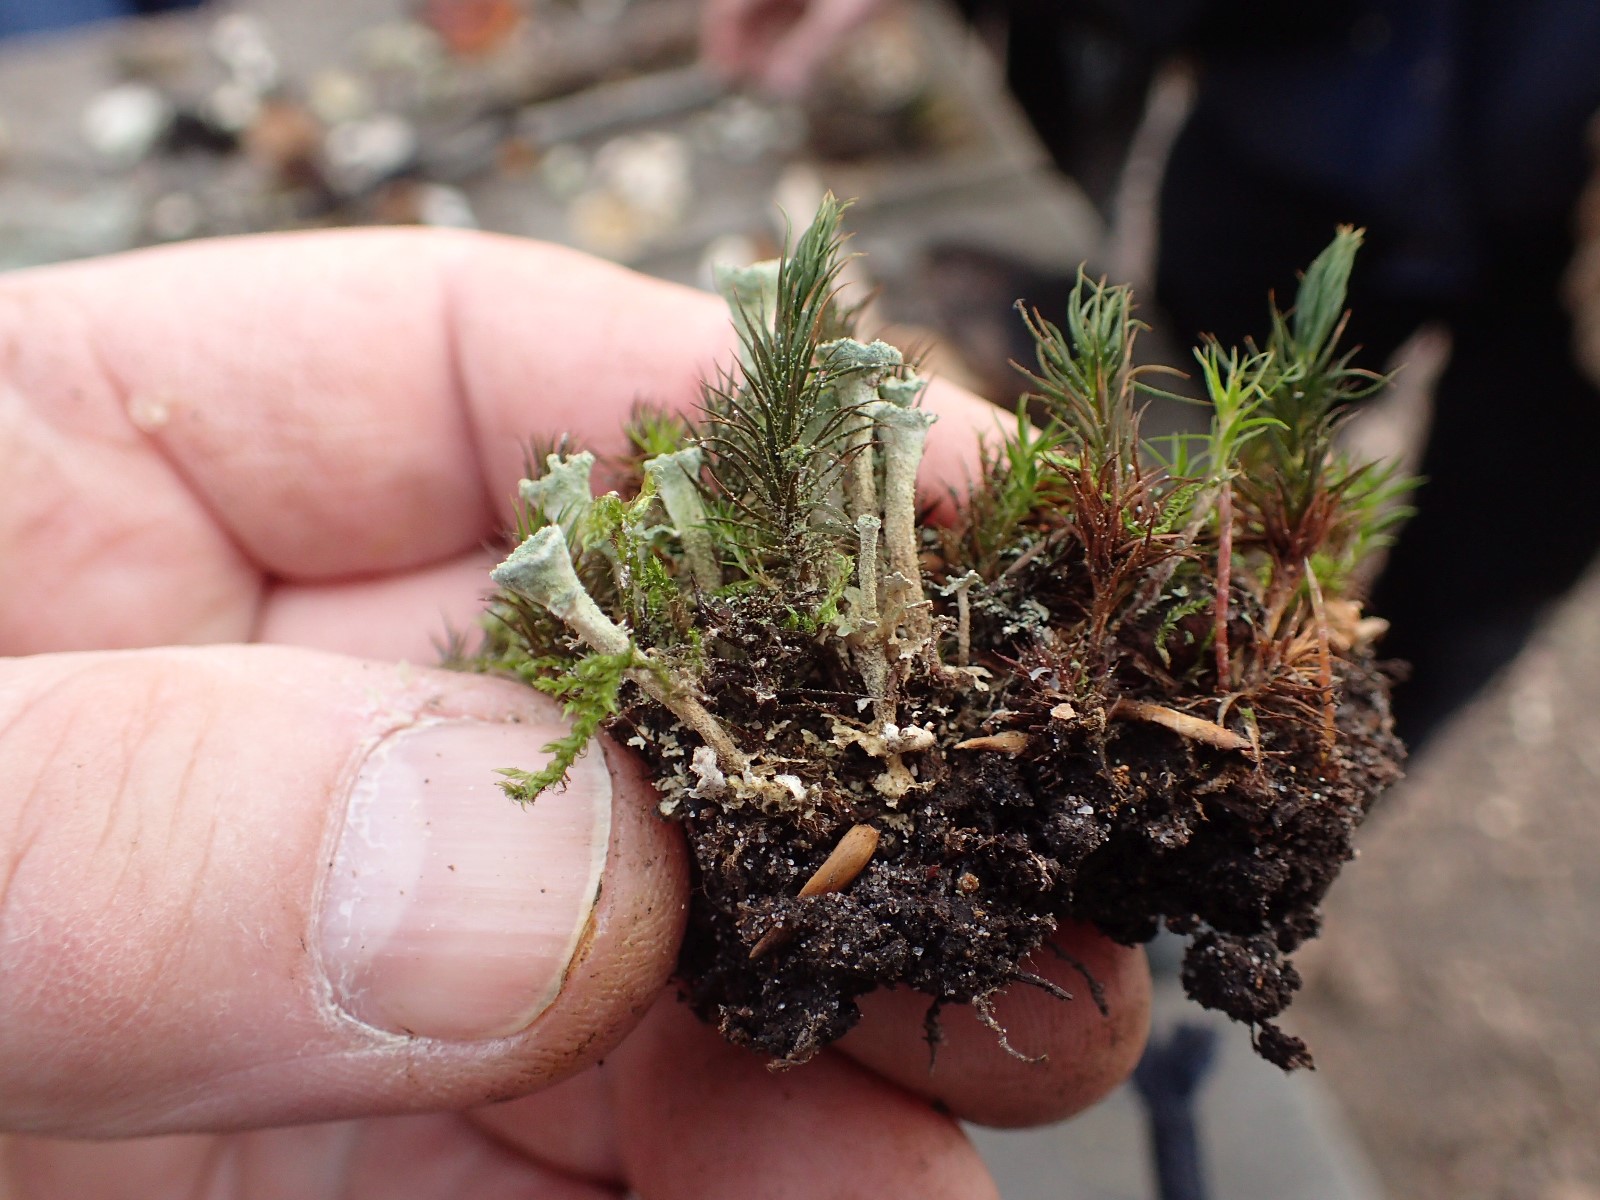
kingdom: Fungi
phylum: Ascomycota
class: Lecanoromycetes
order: Lecanorales
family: Cladoniaceae
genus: Cladonia
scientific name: Cladonia fimbriata
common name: bleggrøn bægerlav
